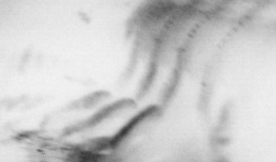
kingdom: Animalia
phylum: Chordata
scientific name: Chordata
